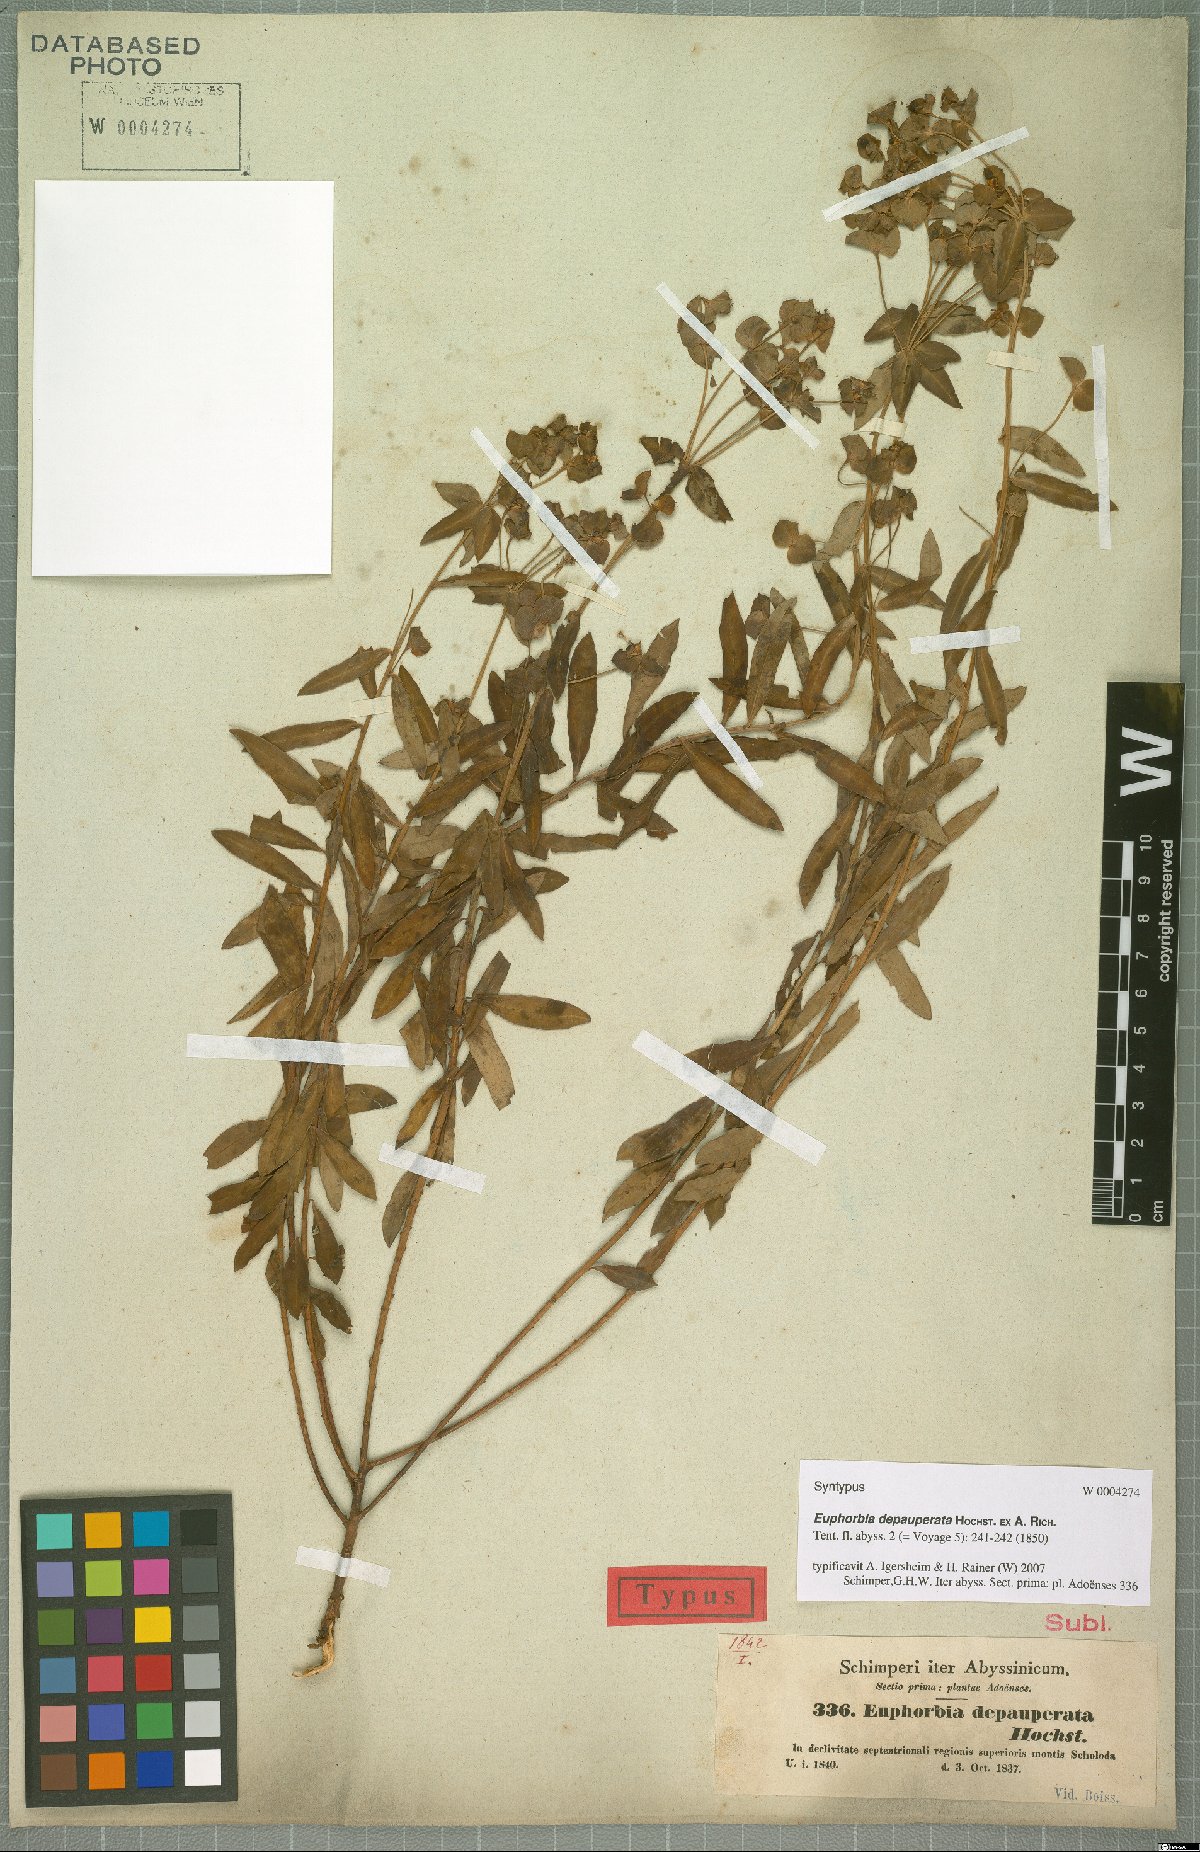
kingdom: Plantae
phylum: Tracheophyta
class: Magnoliopsida
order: Malpighiales
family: Euphorbiaceae
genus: Euphorbia
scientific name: Euphorbia depauperata
